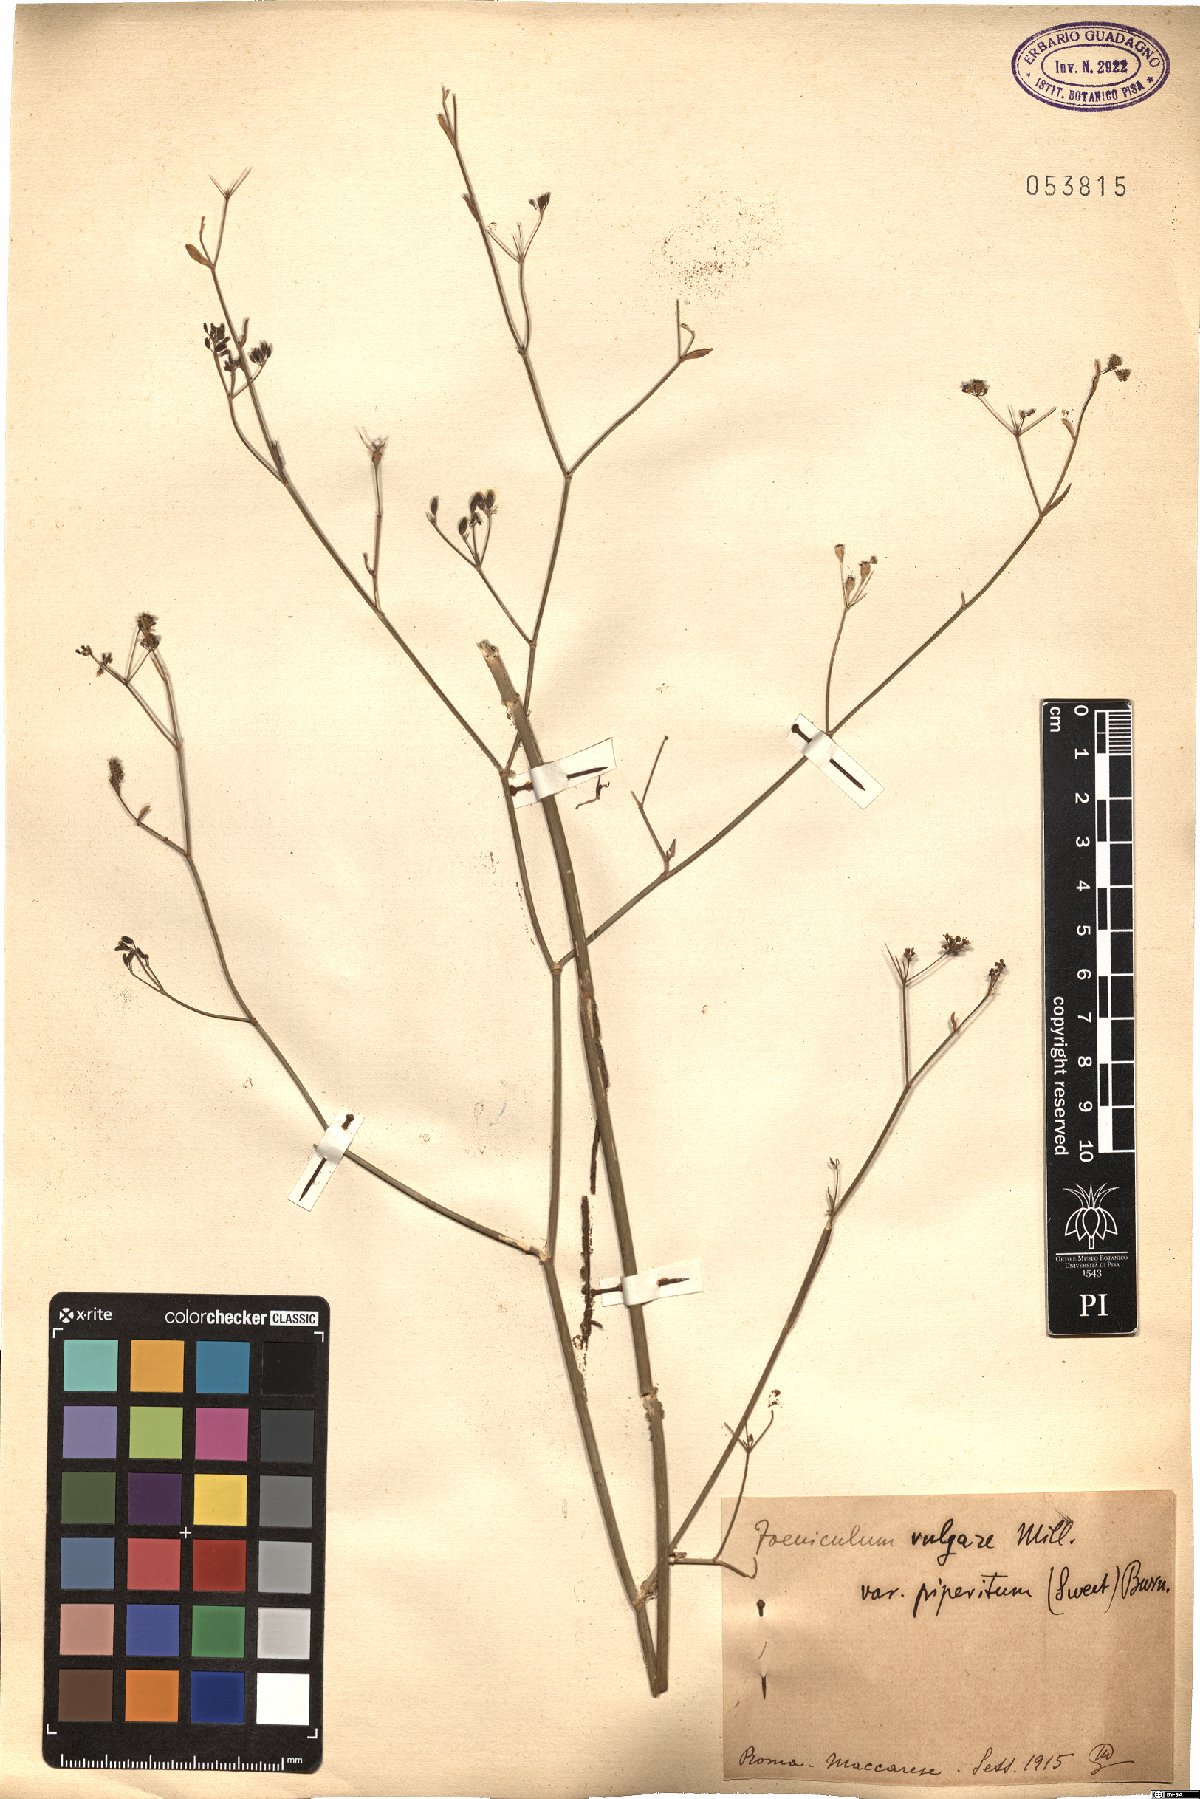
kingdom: Plantae
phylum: Tracheophyta
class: Magnoliopsida
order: Apiales
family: Apiaceae
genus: Foeniculum
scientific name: Foeniculum vulgare
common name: Fennel
